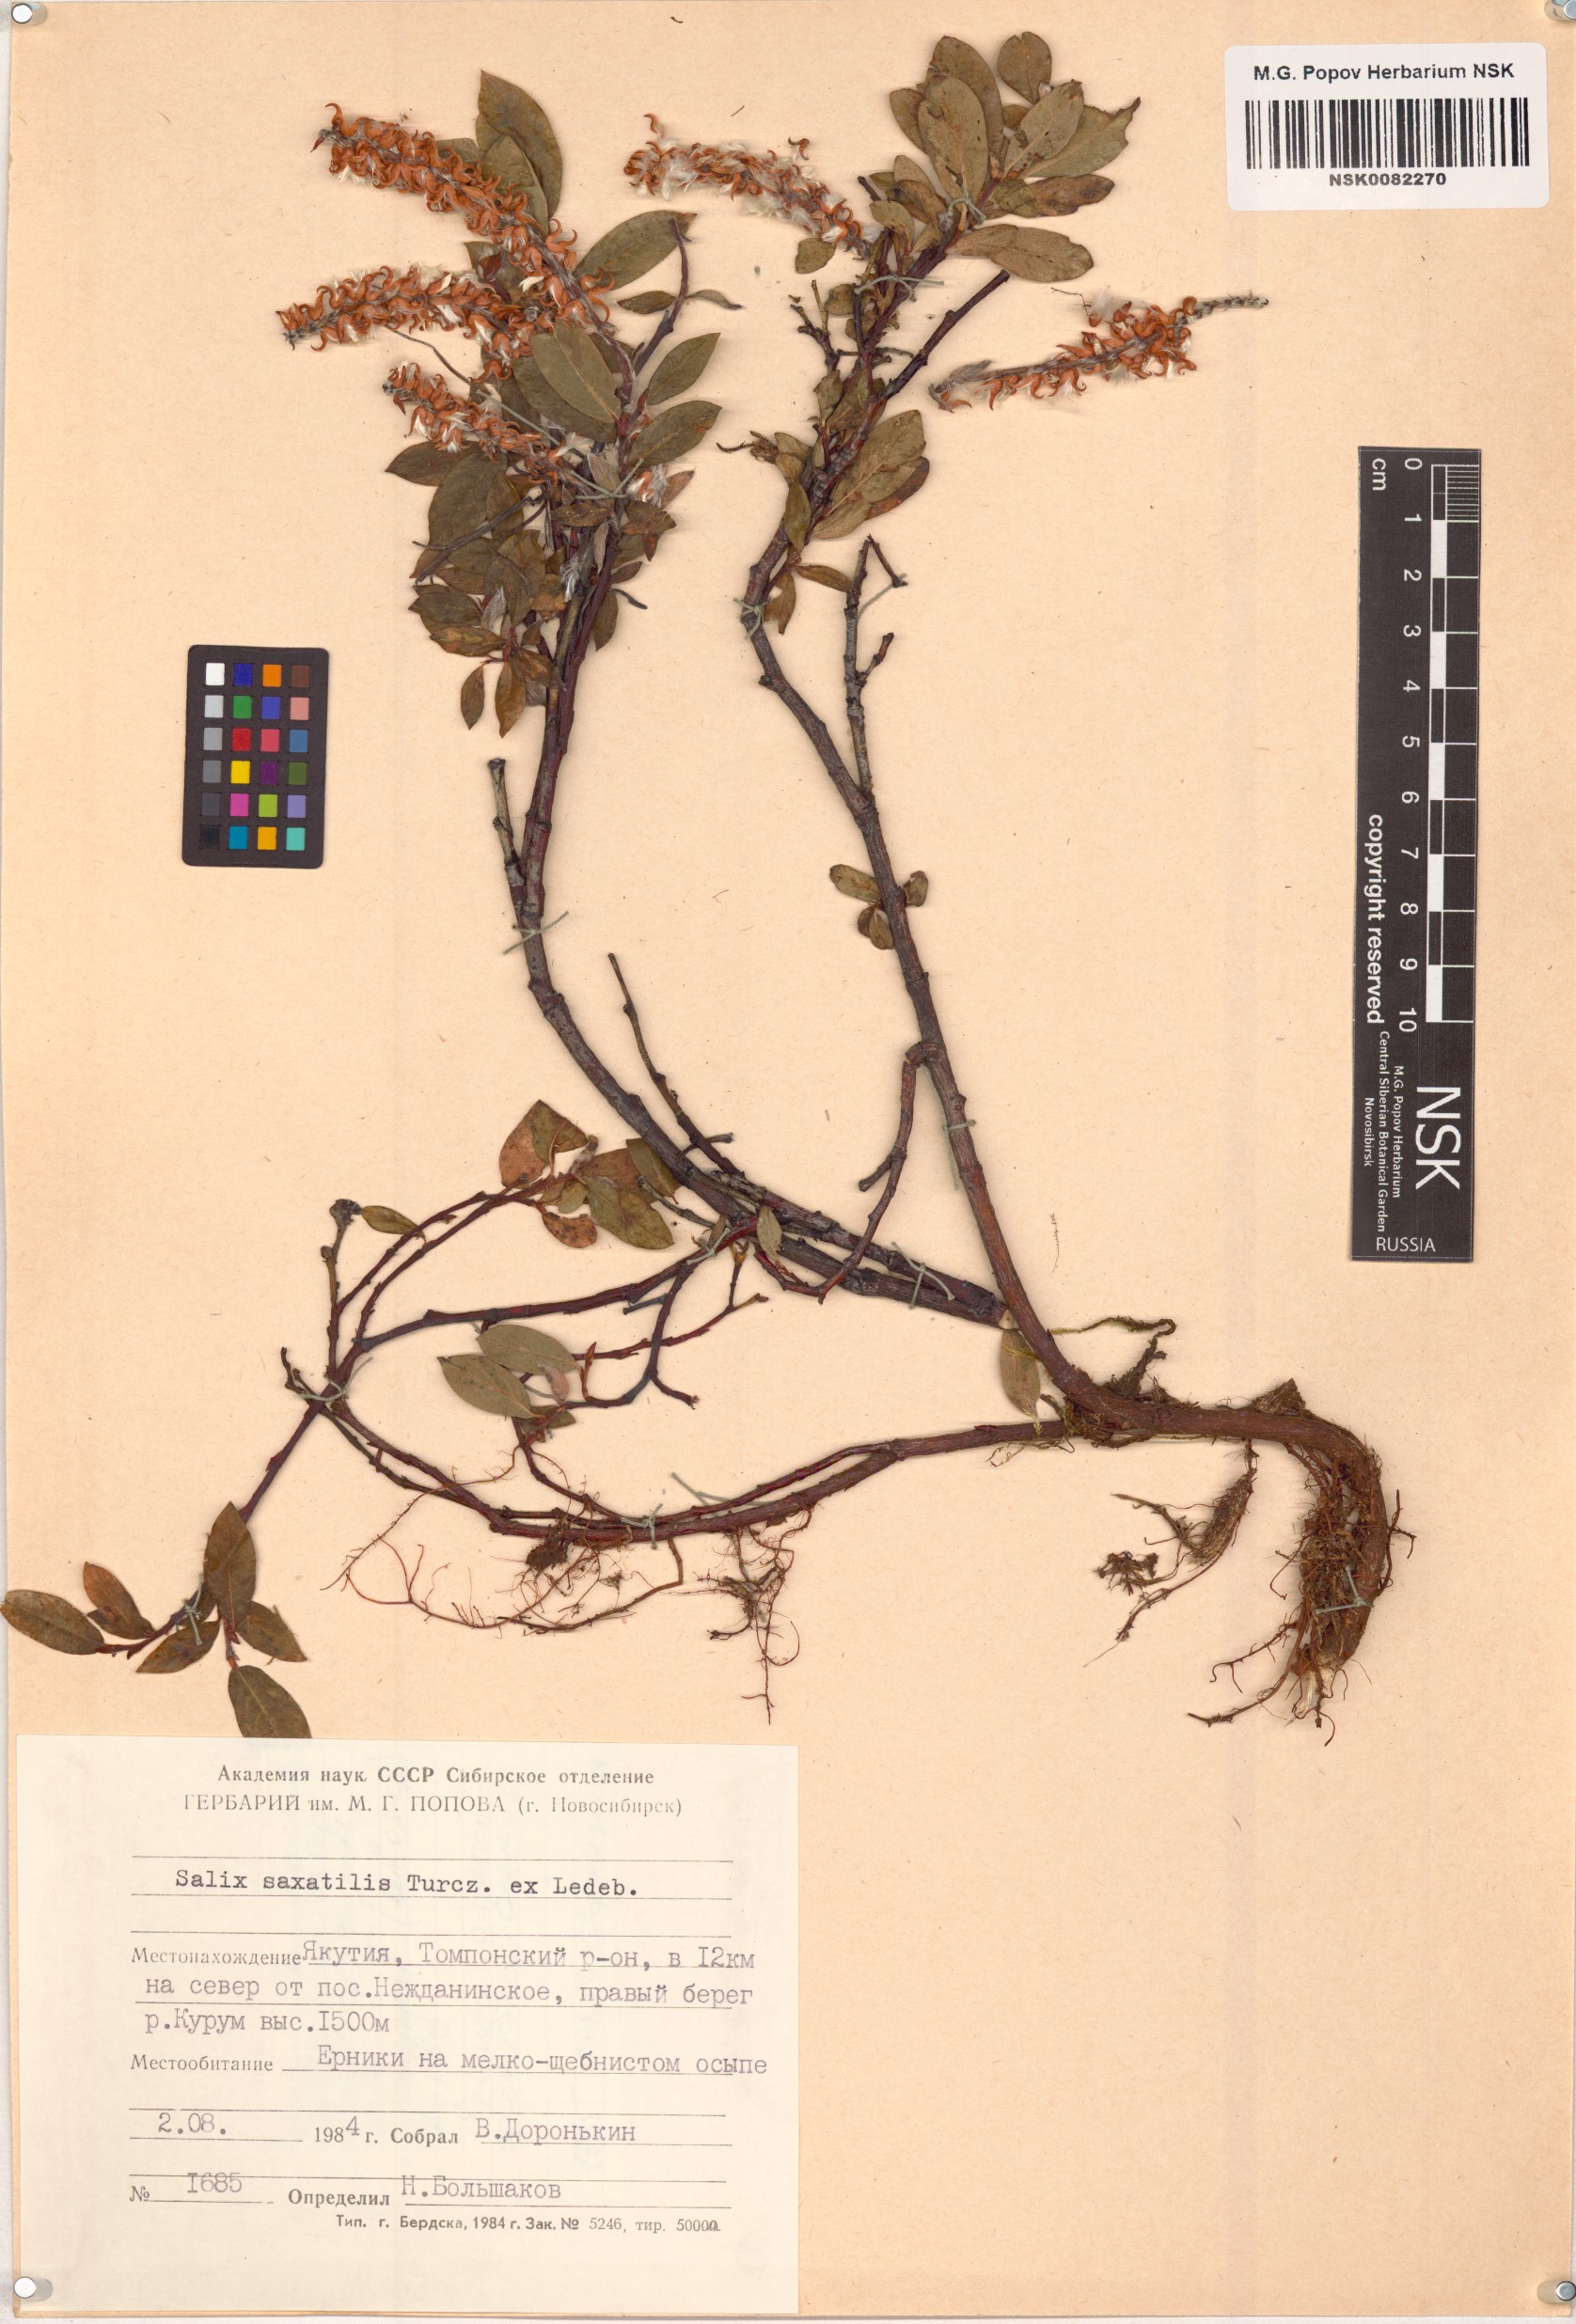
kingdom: Plantae
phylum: Tracheophyta
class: Magnoliopsida
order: Malpighiales
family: Salicaceae
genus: Salix
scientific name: Salix saxatilis
